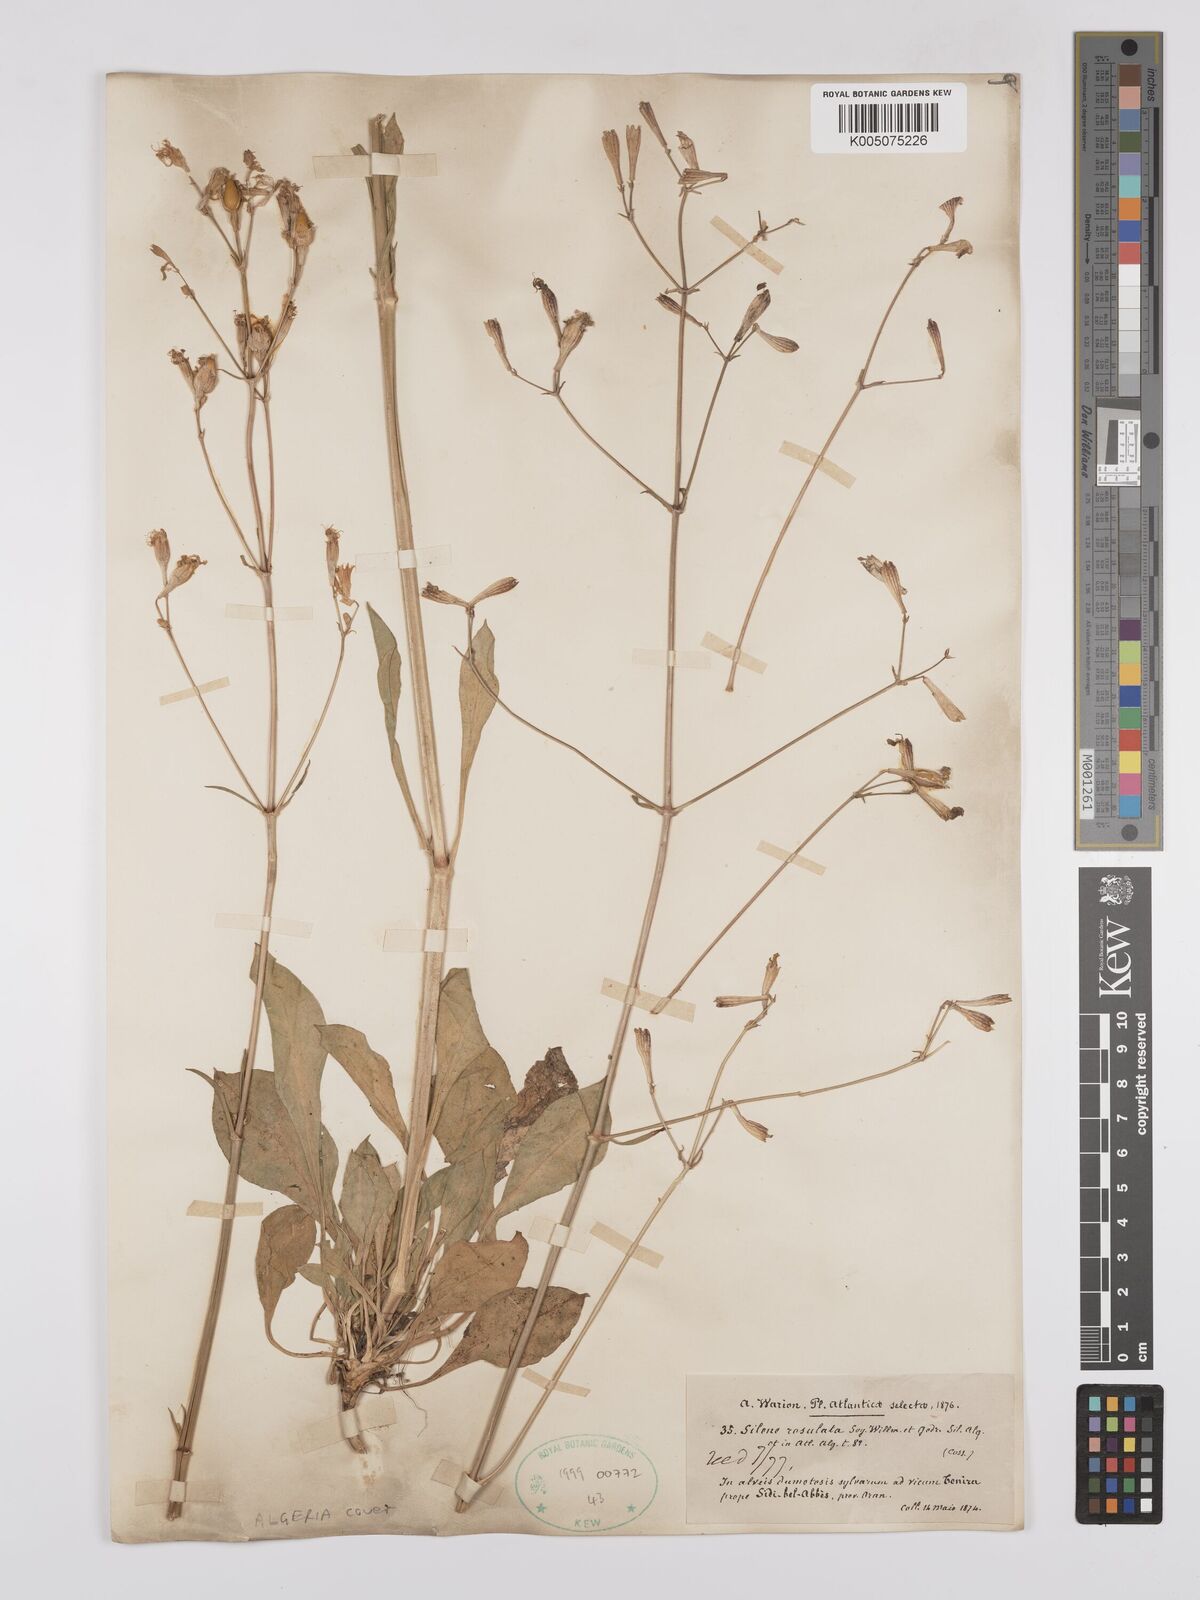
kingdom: Plantae
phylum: Tracheophyta
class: Magnoliopsida
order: Caryophyllales
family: Caryophyllaceae
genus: Silene
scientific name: Silene rosulata
